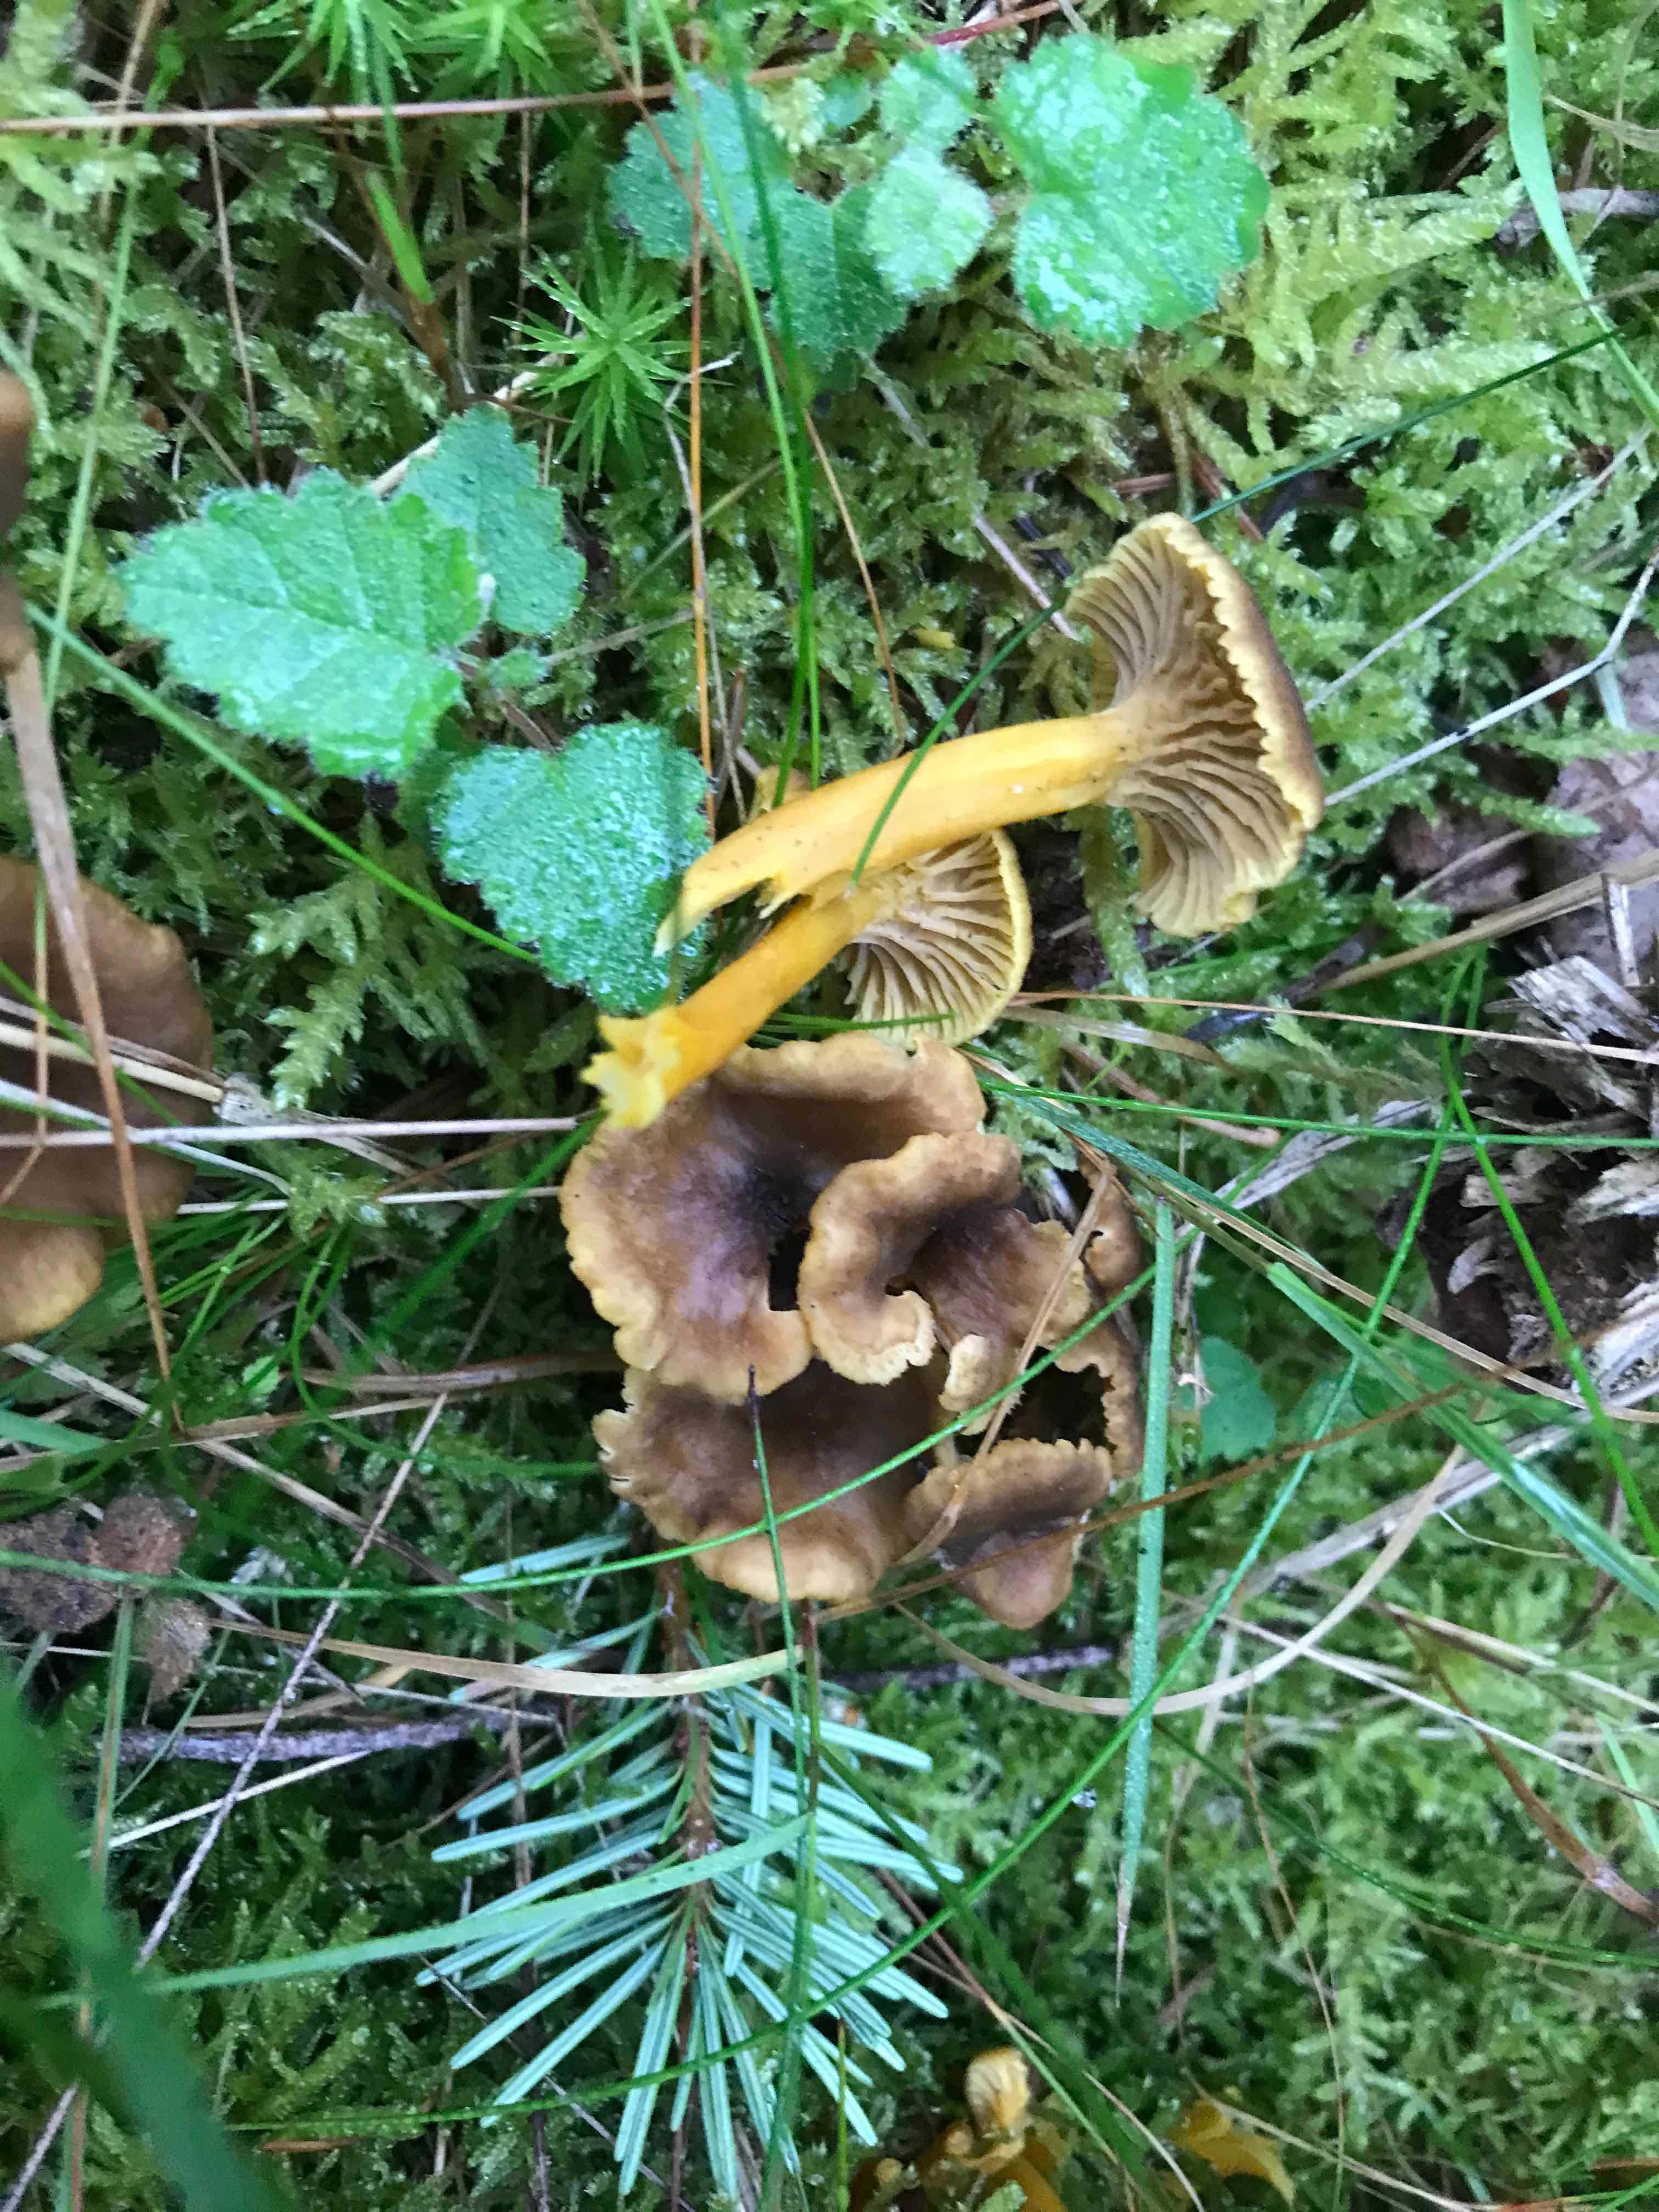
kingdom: Fungi
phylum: Basidiomycota
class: Agaricomycetes
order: Cantharellales
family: Hydnaceae
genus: Craterellus
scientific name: Craterellus tubaeformis
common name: tragt-kantarel
